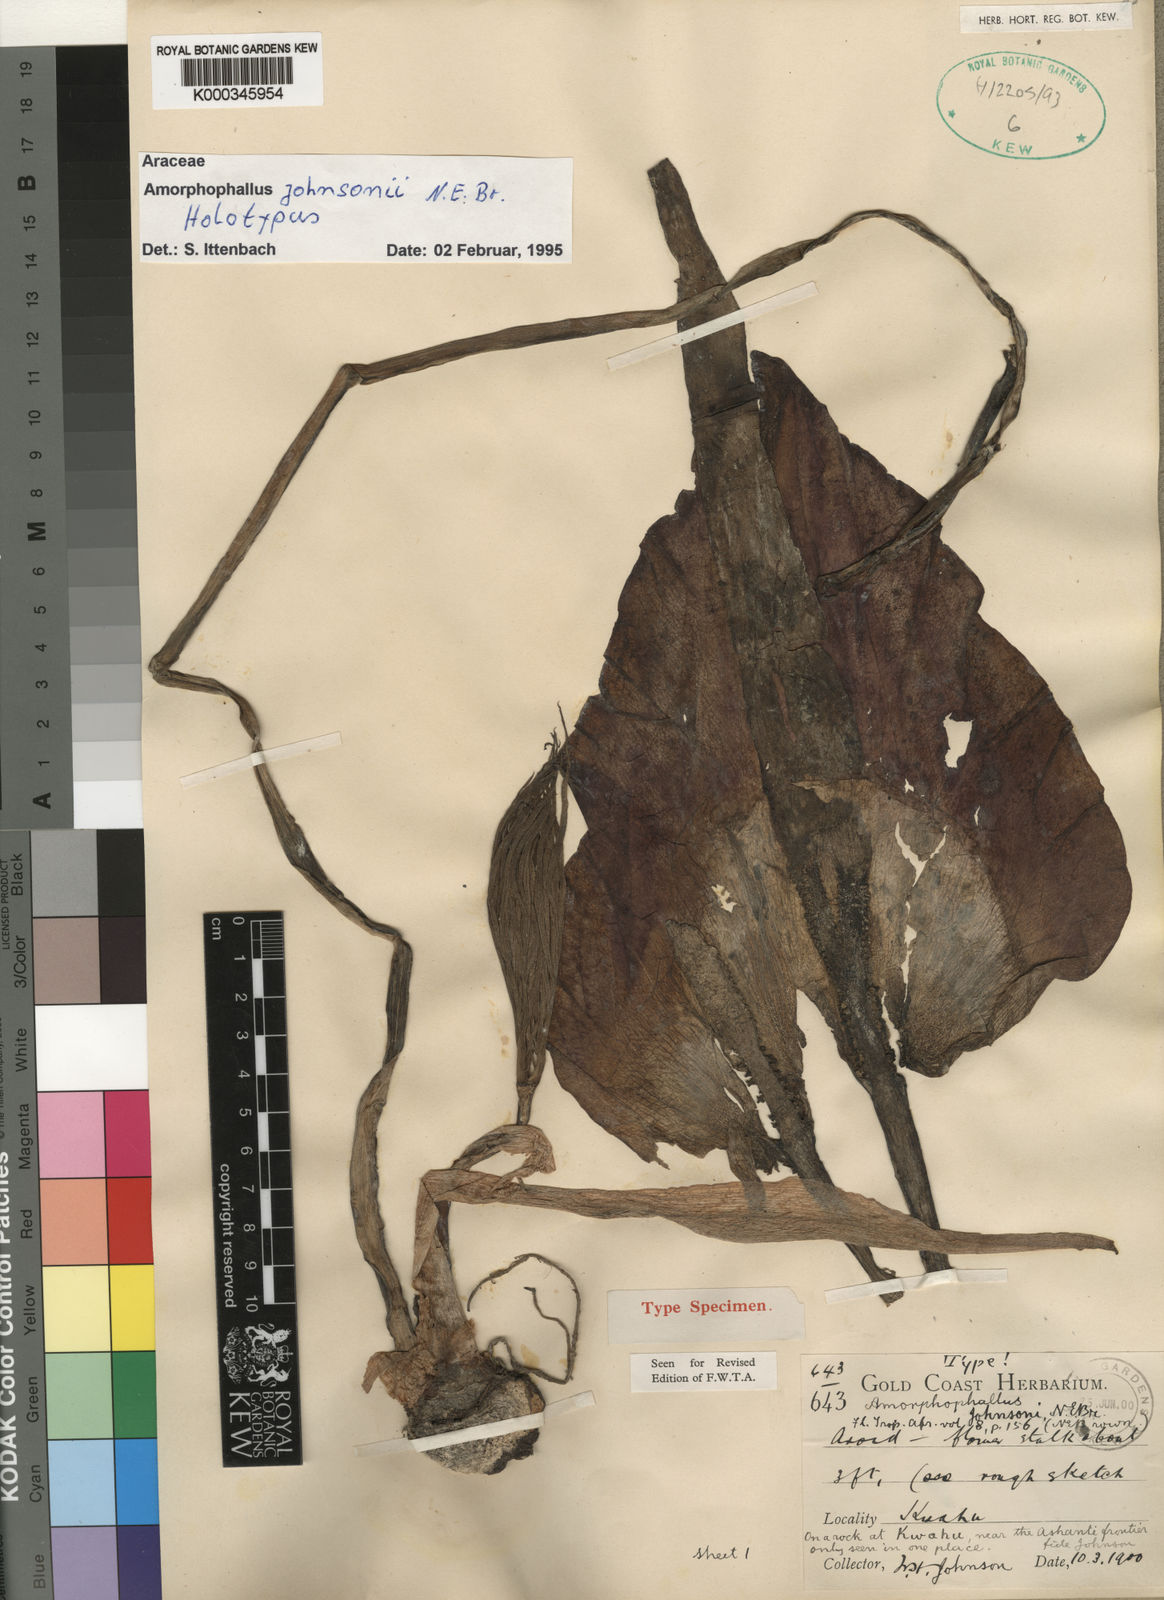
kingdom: Plantae
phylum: Tracheophyta
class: Liliopsida
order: Alismatales
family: Araceae
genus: Amorphophallus
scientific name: Amorphophallus johnsonii
